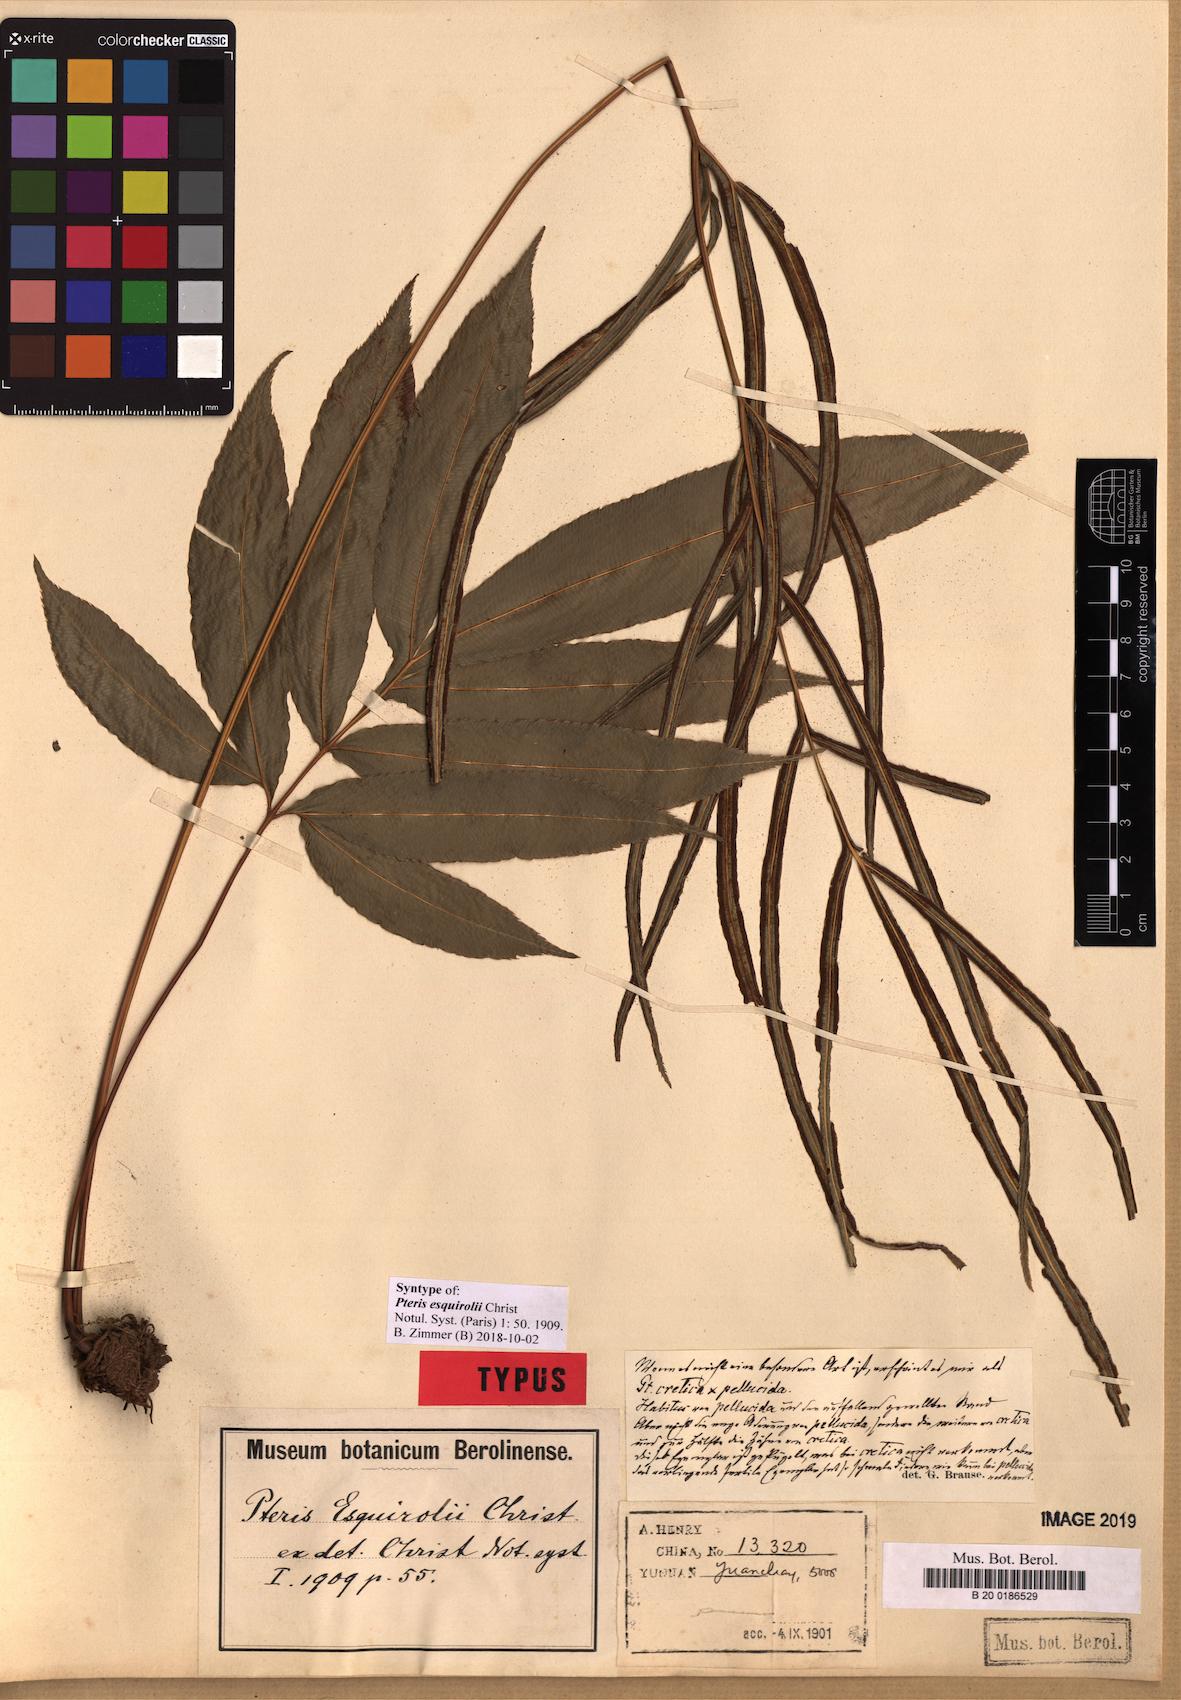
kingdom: Plantae
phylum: Tracheophyta
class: Polypodiopsida
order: Polypodiales
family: Pteridaceae
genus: Pteris
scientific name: Pteris esquirolii
